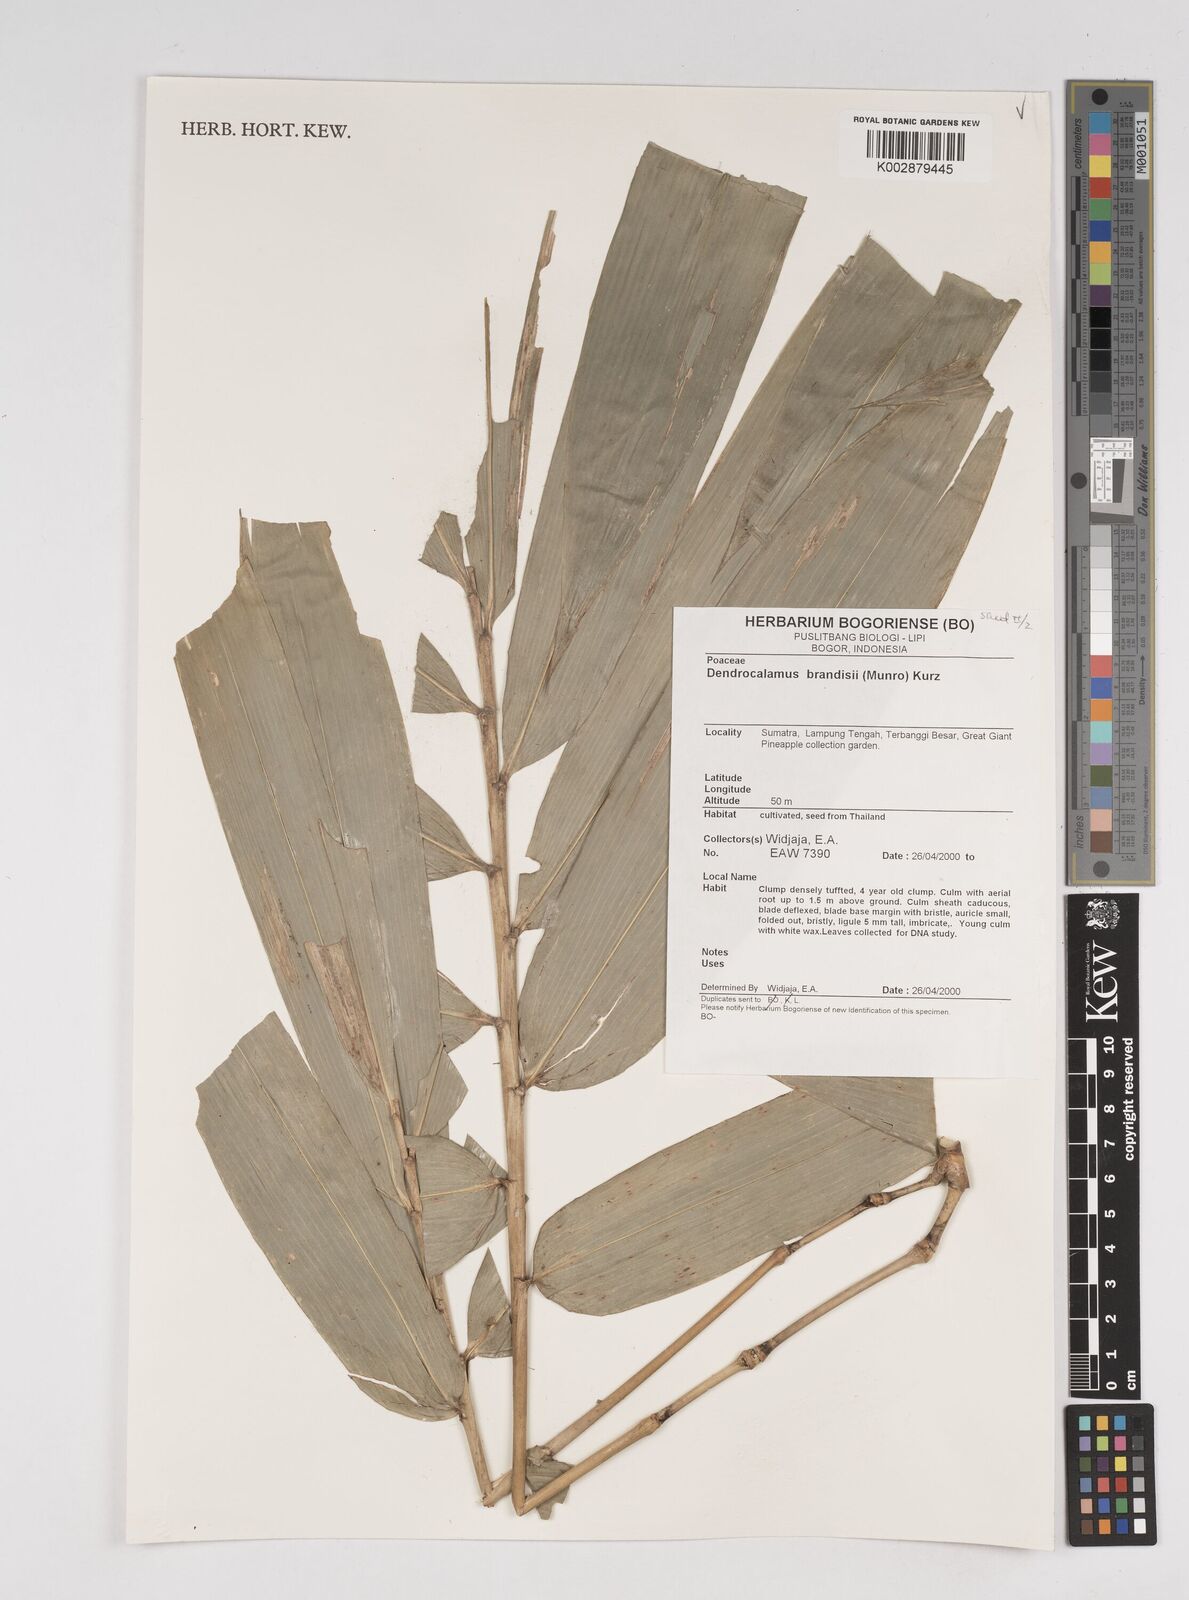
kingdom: Plantae
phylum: Tracheophyta
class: Liliopsida
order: Poales
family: Poaceae
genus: Dendrocalamus
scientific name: Dendrocalamus brandisii
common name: Velvetleaf bamboo
